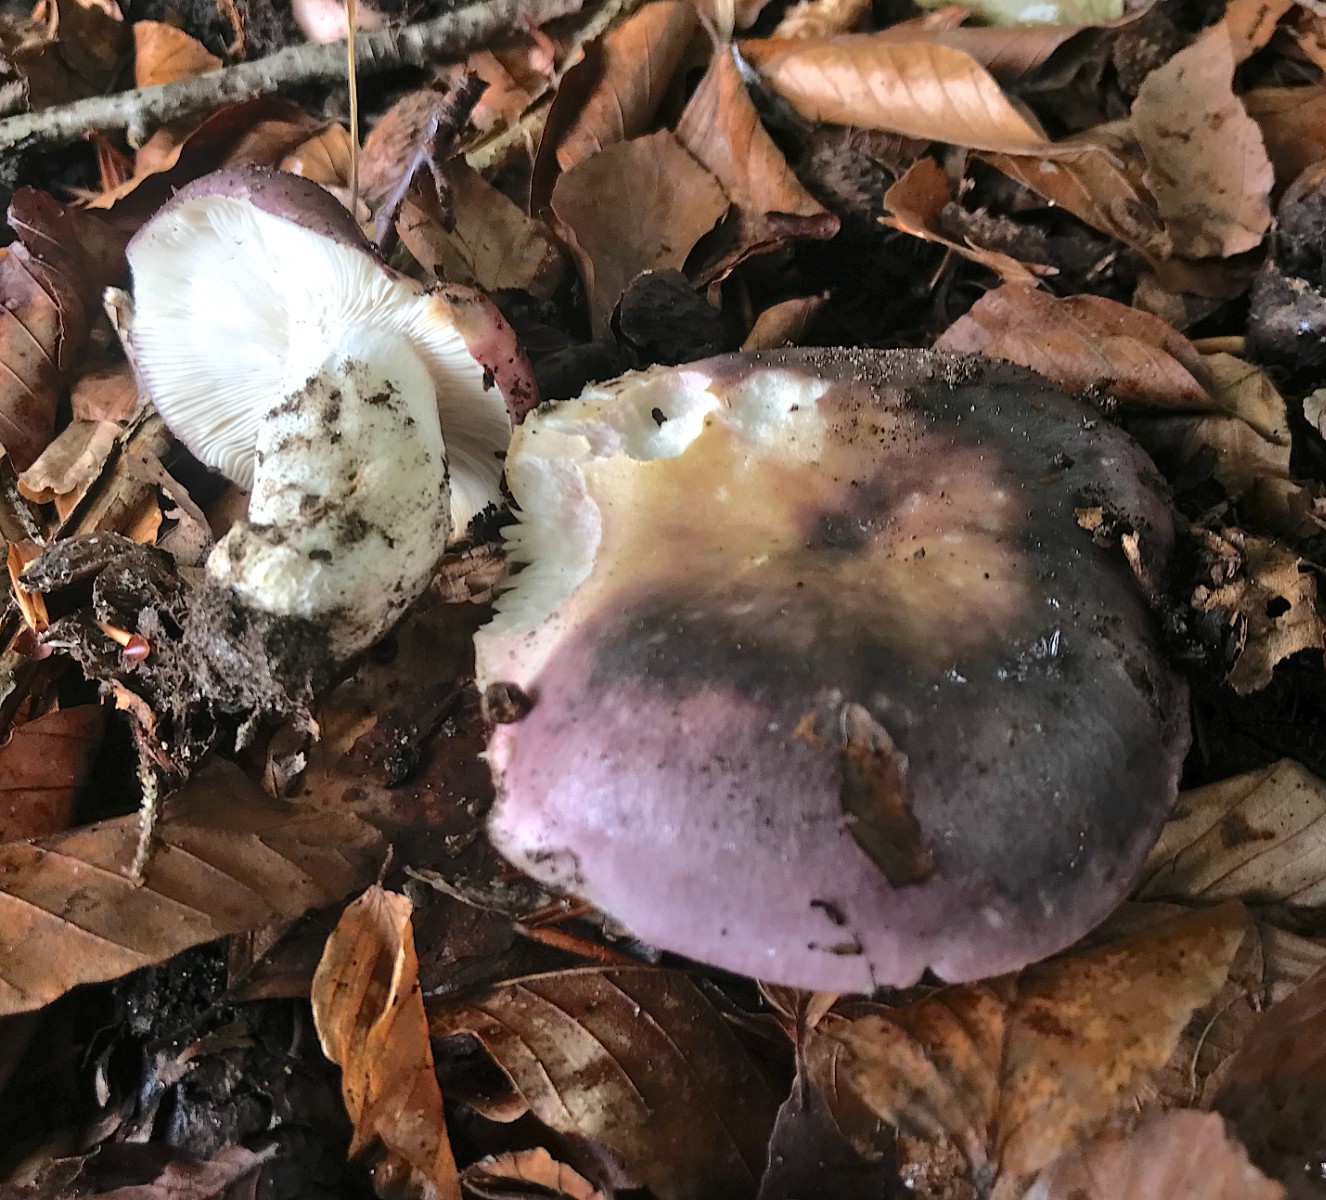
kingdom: Fungi
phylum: Basidiomycota
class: Agaricomycetes
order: Russulales
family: Russulaceae
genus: Russula
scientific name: Russula cyanoxantha
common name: broget skørhat
